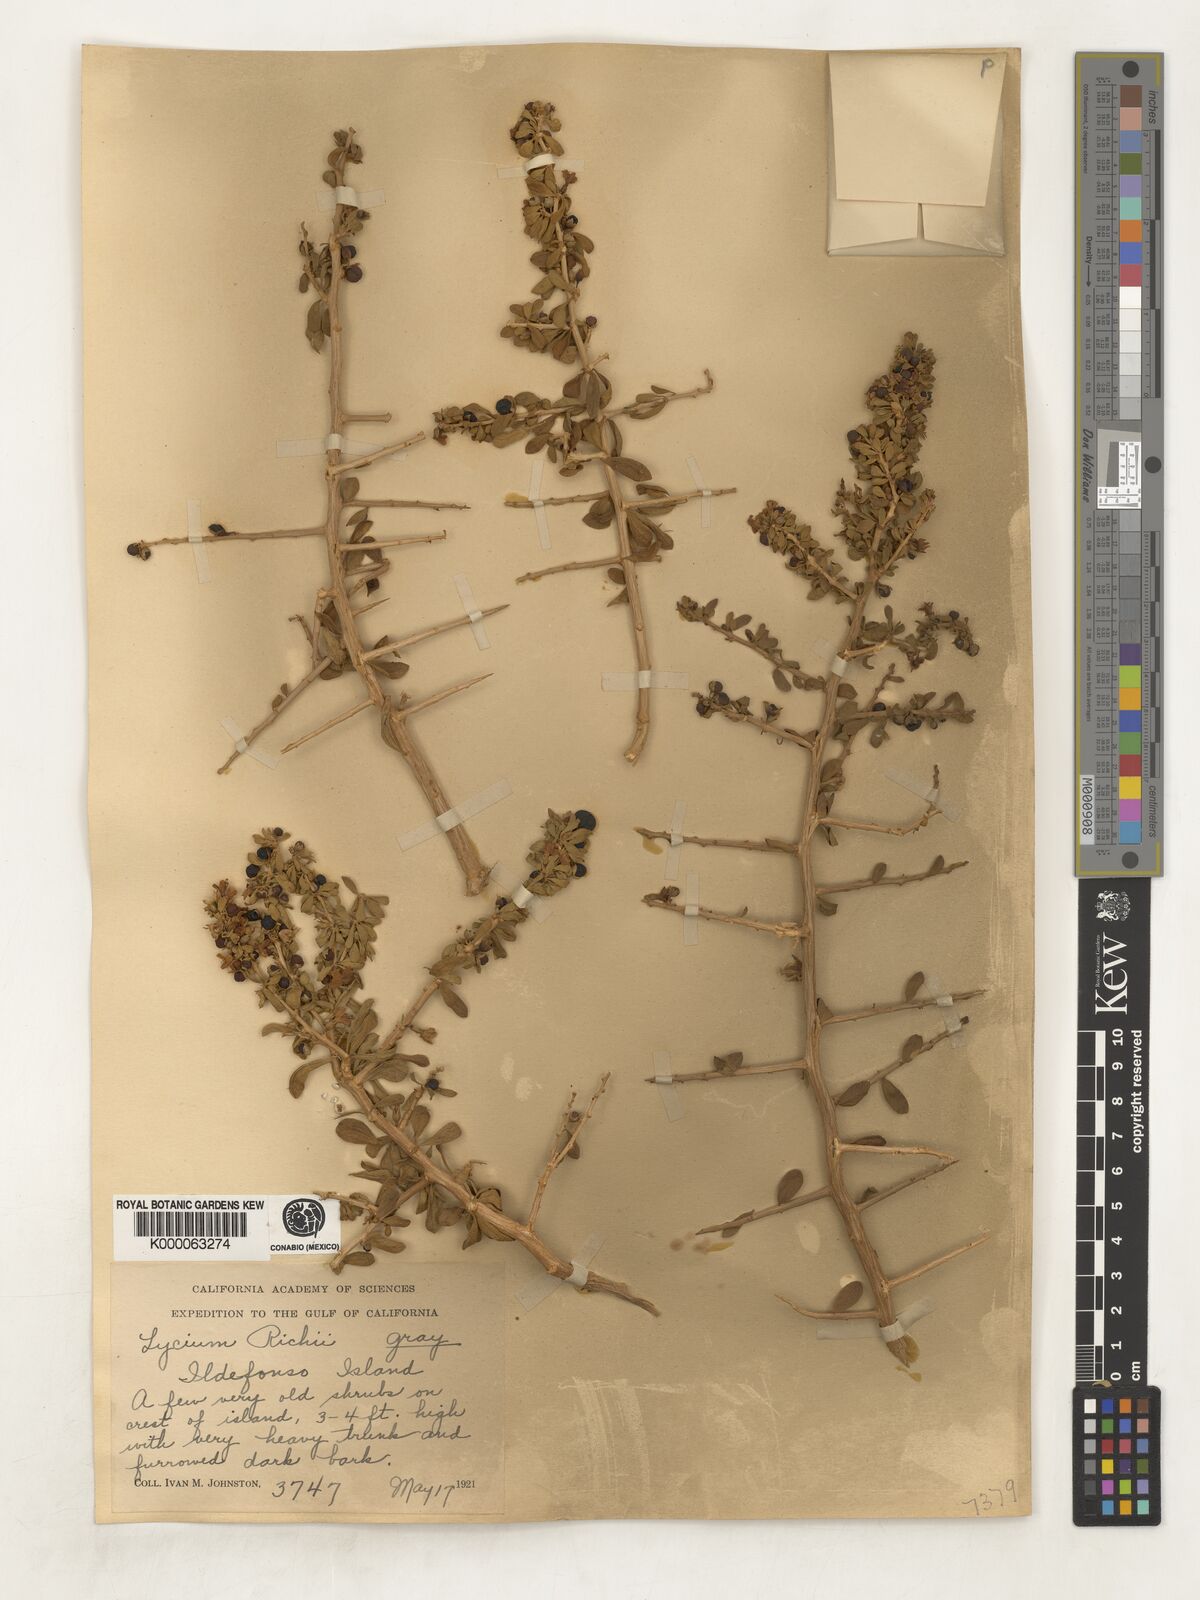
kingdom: Plantae
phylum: Tracheophyta
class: Magnoliopsida
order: Solanales
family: Solanaceae
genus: Lycium
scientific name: Lycium brevipes
